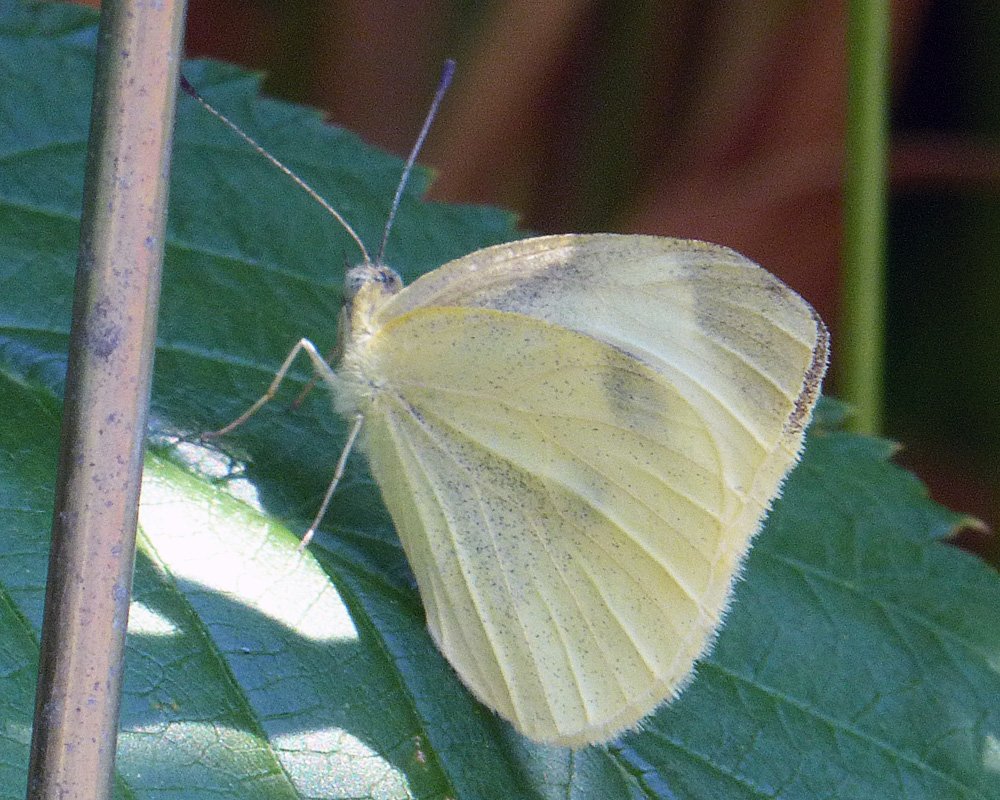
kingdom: Animalia
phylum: Arthropoda
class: Insecta
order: Lepidoptera
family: Pieridae
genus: Pieris
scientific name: Pieris rapae
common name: Cabbage White
